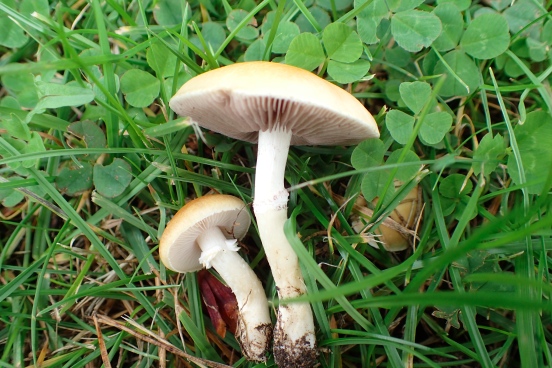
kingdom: Fungi
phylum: Basidiomycota
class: Agaricomycetes
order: Agaricales
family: Hymenogastraceae
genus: Psilocybe
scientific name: Psilocybe coronilla
